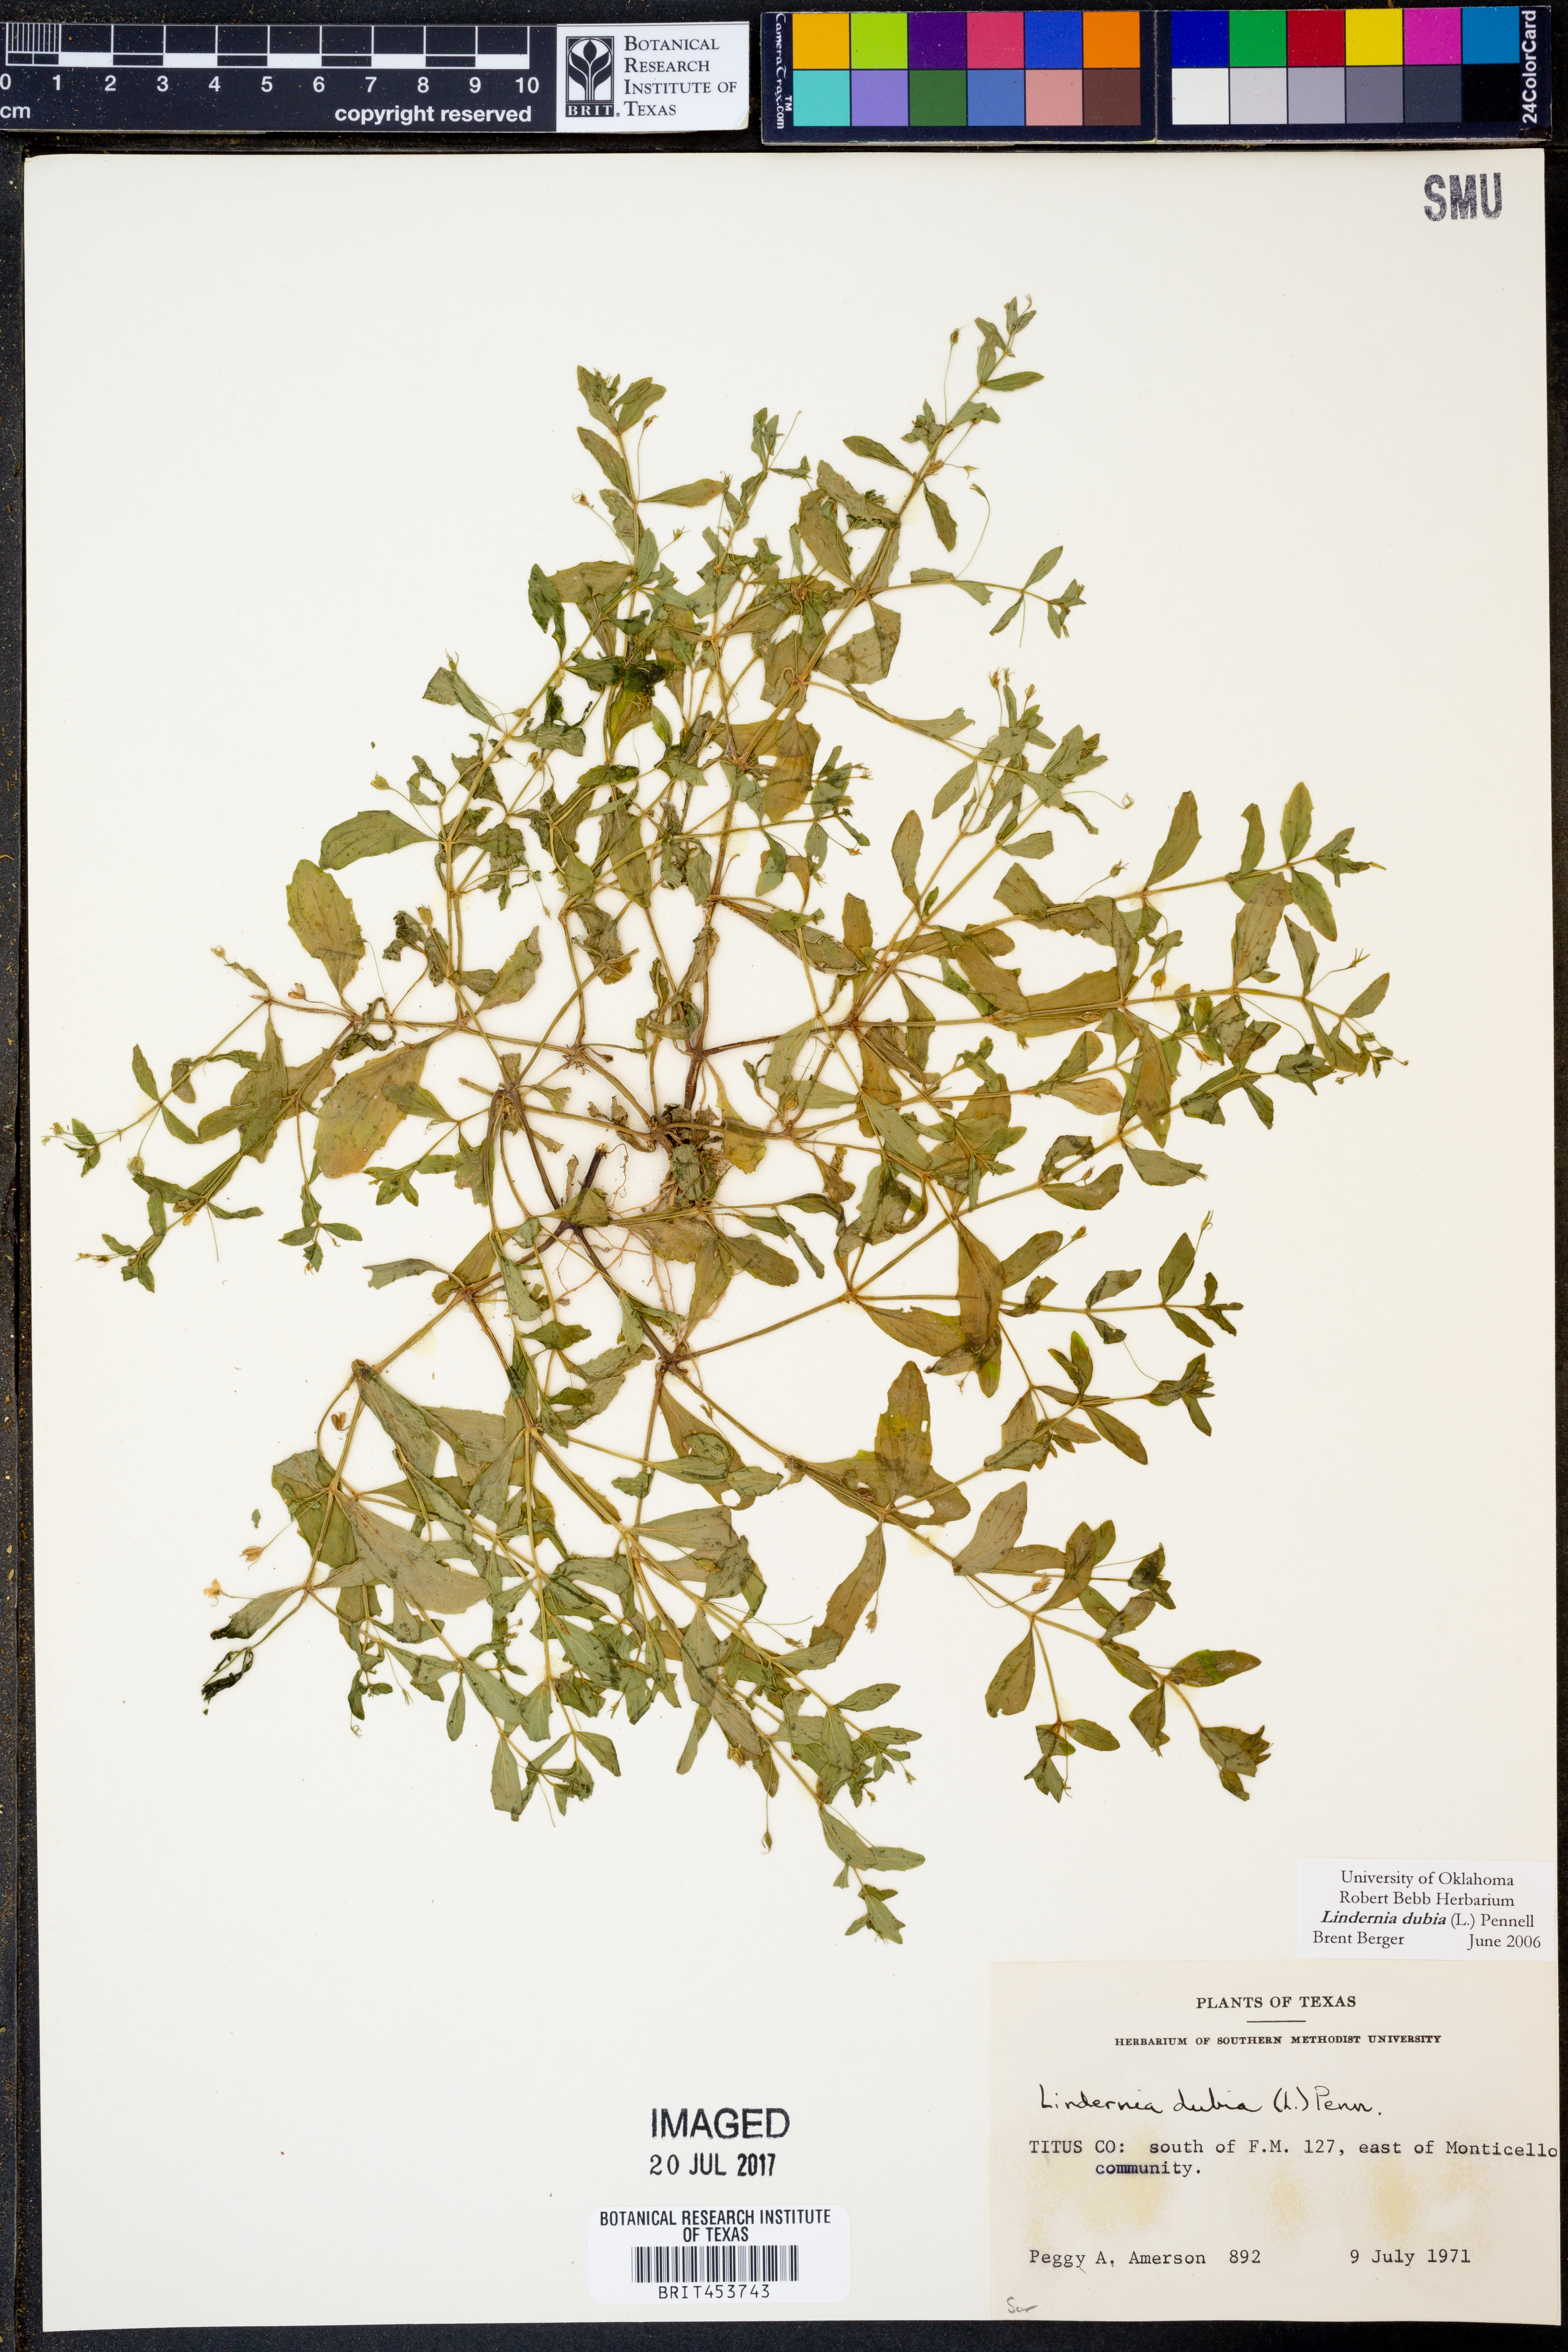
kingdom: Plantae
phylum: Tracheophyta
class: Magnoliopsida
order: Lamiales
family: Linderniaceae
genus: Lindernia
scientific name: Lindernia dubia
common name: Annual false pimpernel
